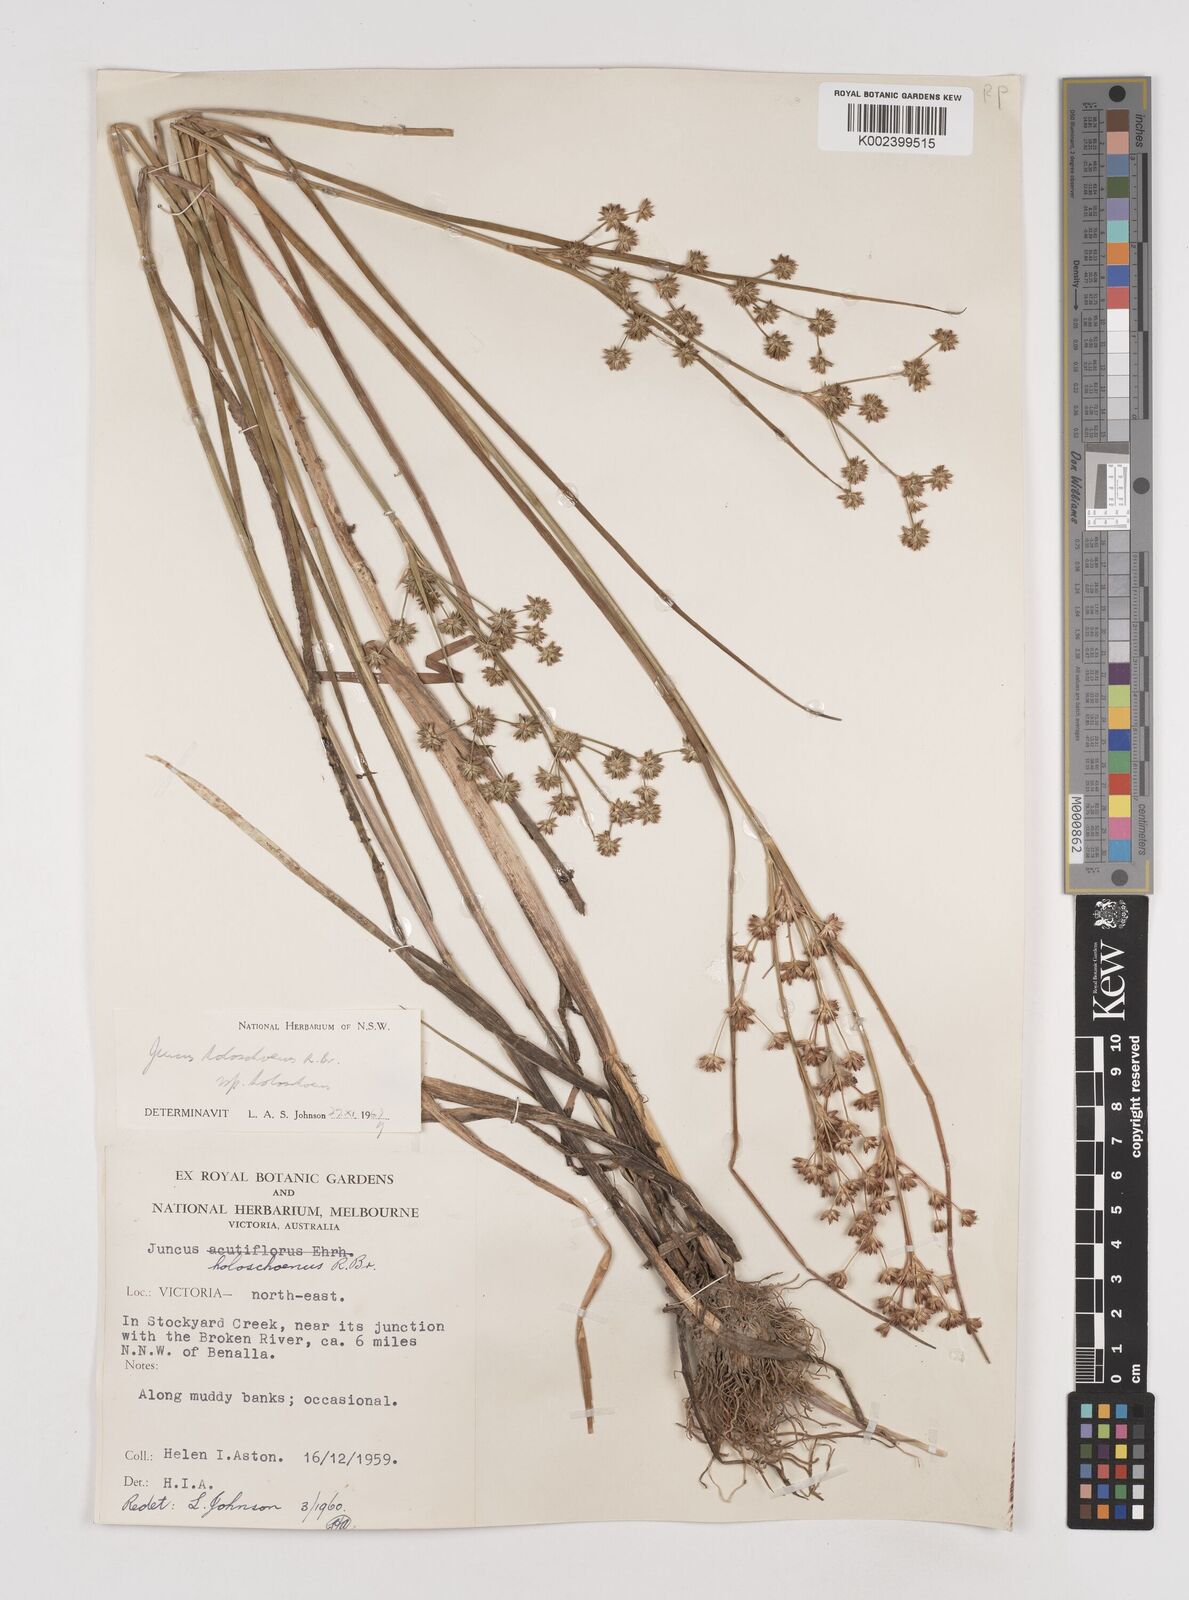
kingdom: Plantae
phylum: Tracheophyta
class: Liliopsida
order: Poales
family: Juncaceae
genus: Juncus
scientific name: Juncus holoschoenus
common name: Joint-leaf rush
